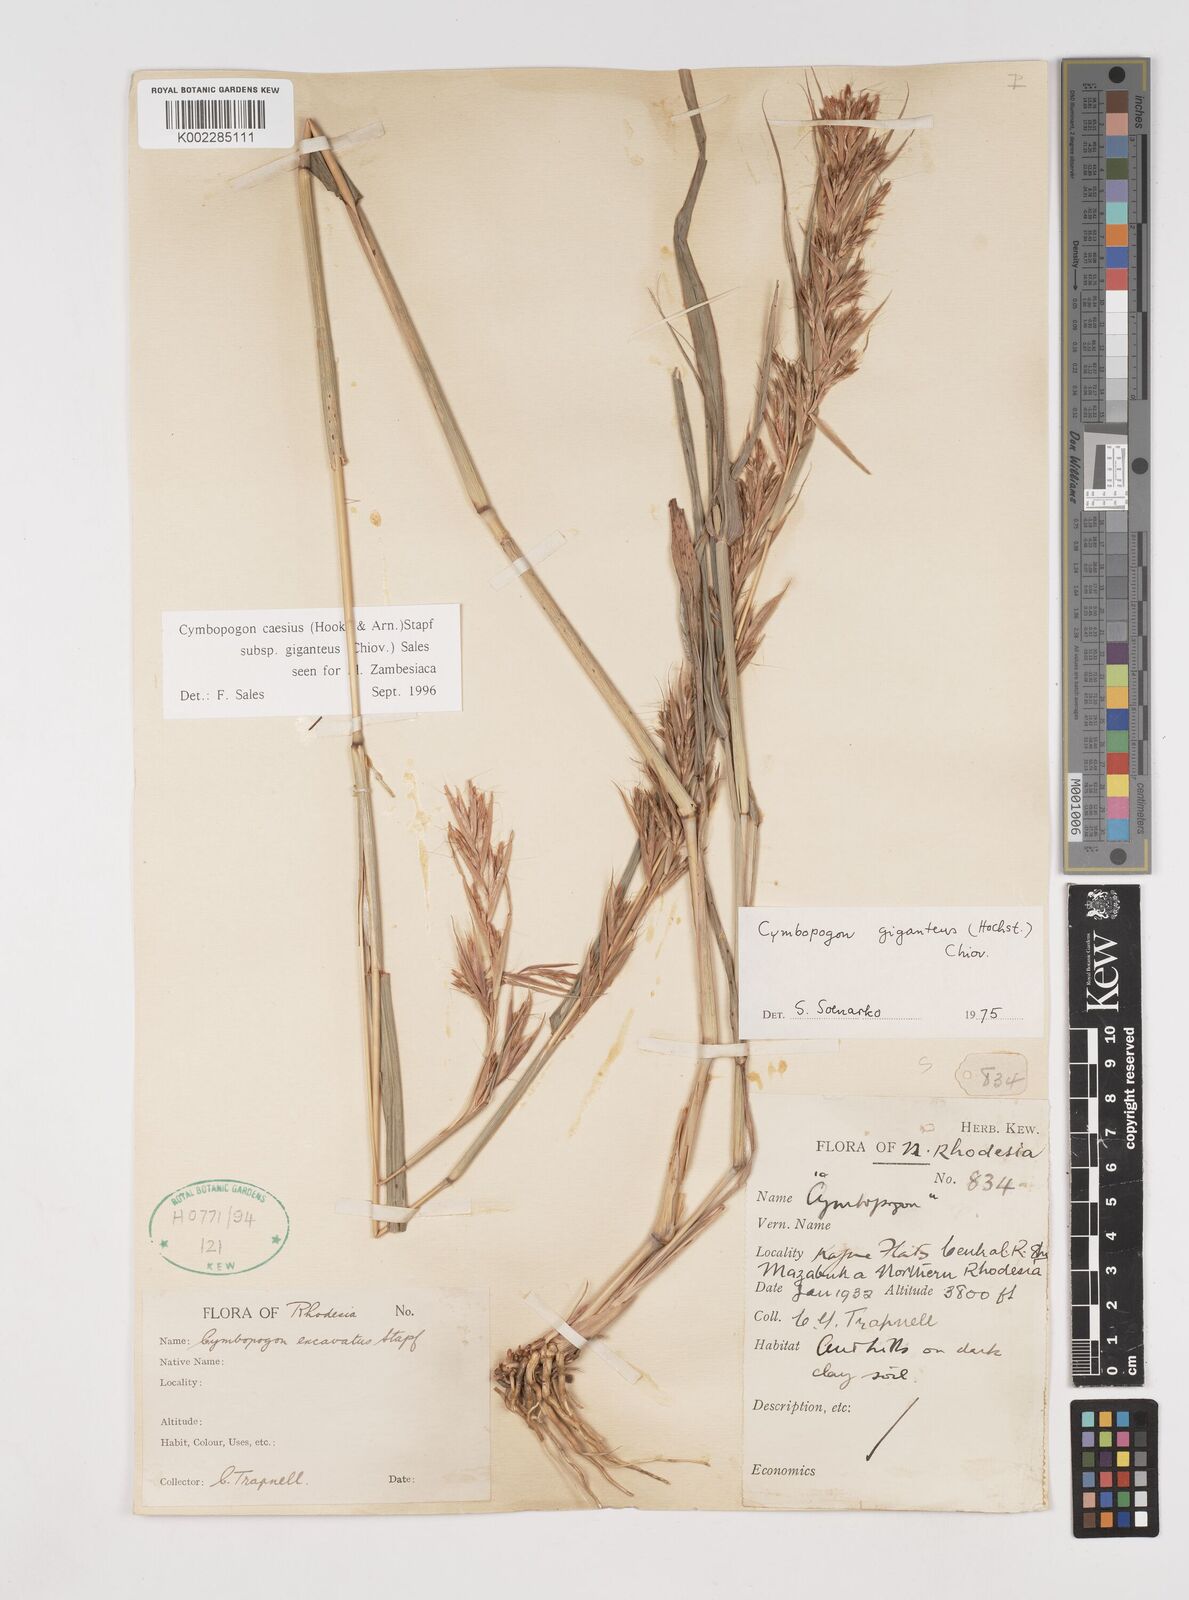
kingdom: Plantae
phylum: Tracheophyta
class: Liliopsida
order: Poales
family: Poaceae
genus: Cymbopogon
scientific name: Cymbopogon giganteus
